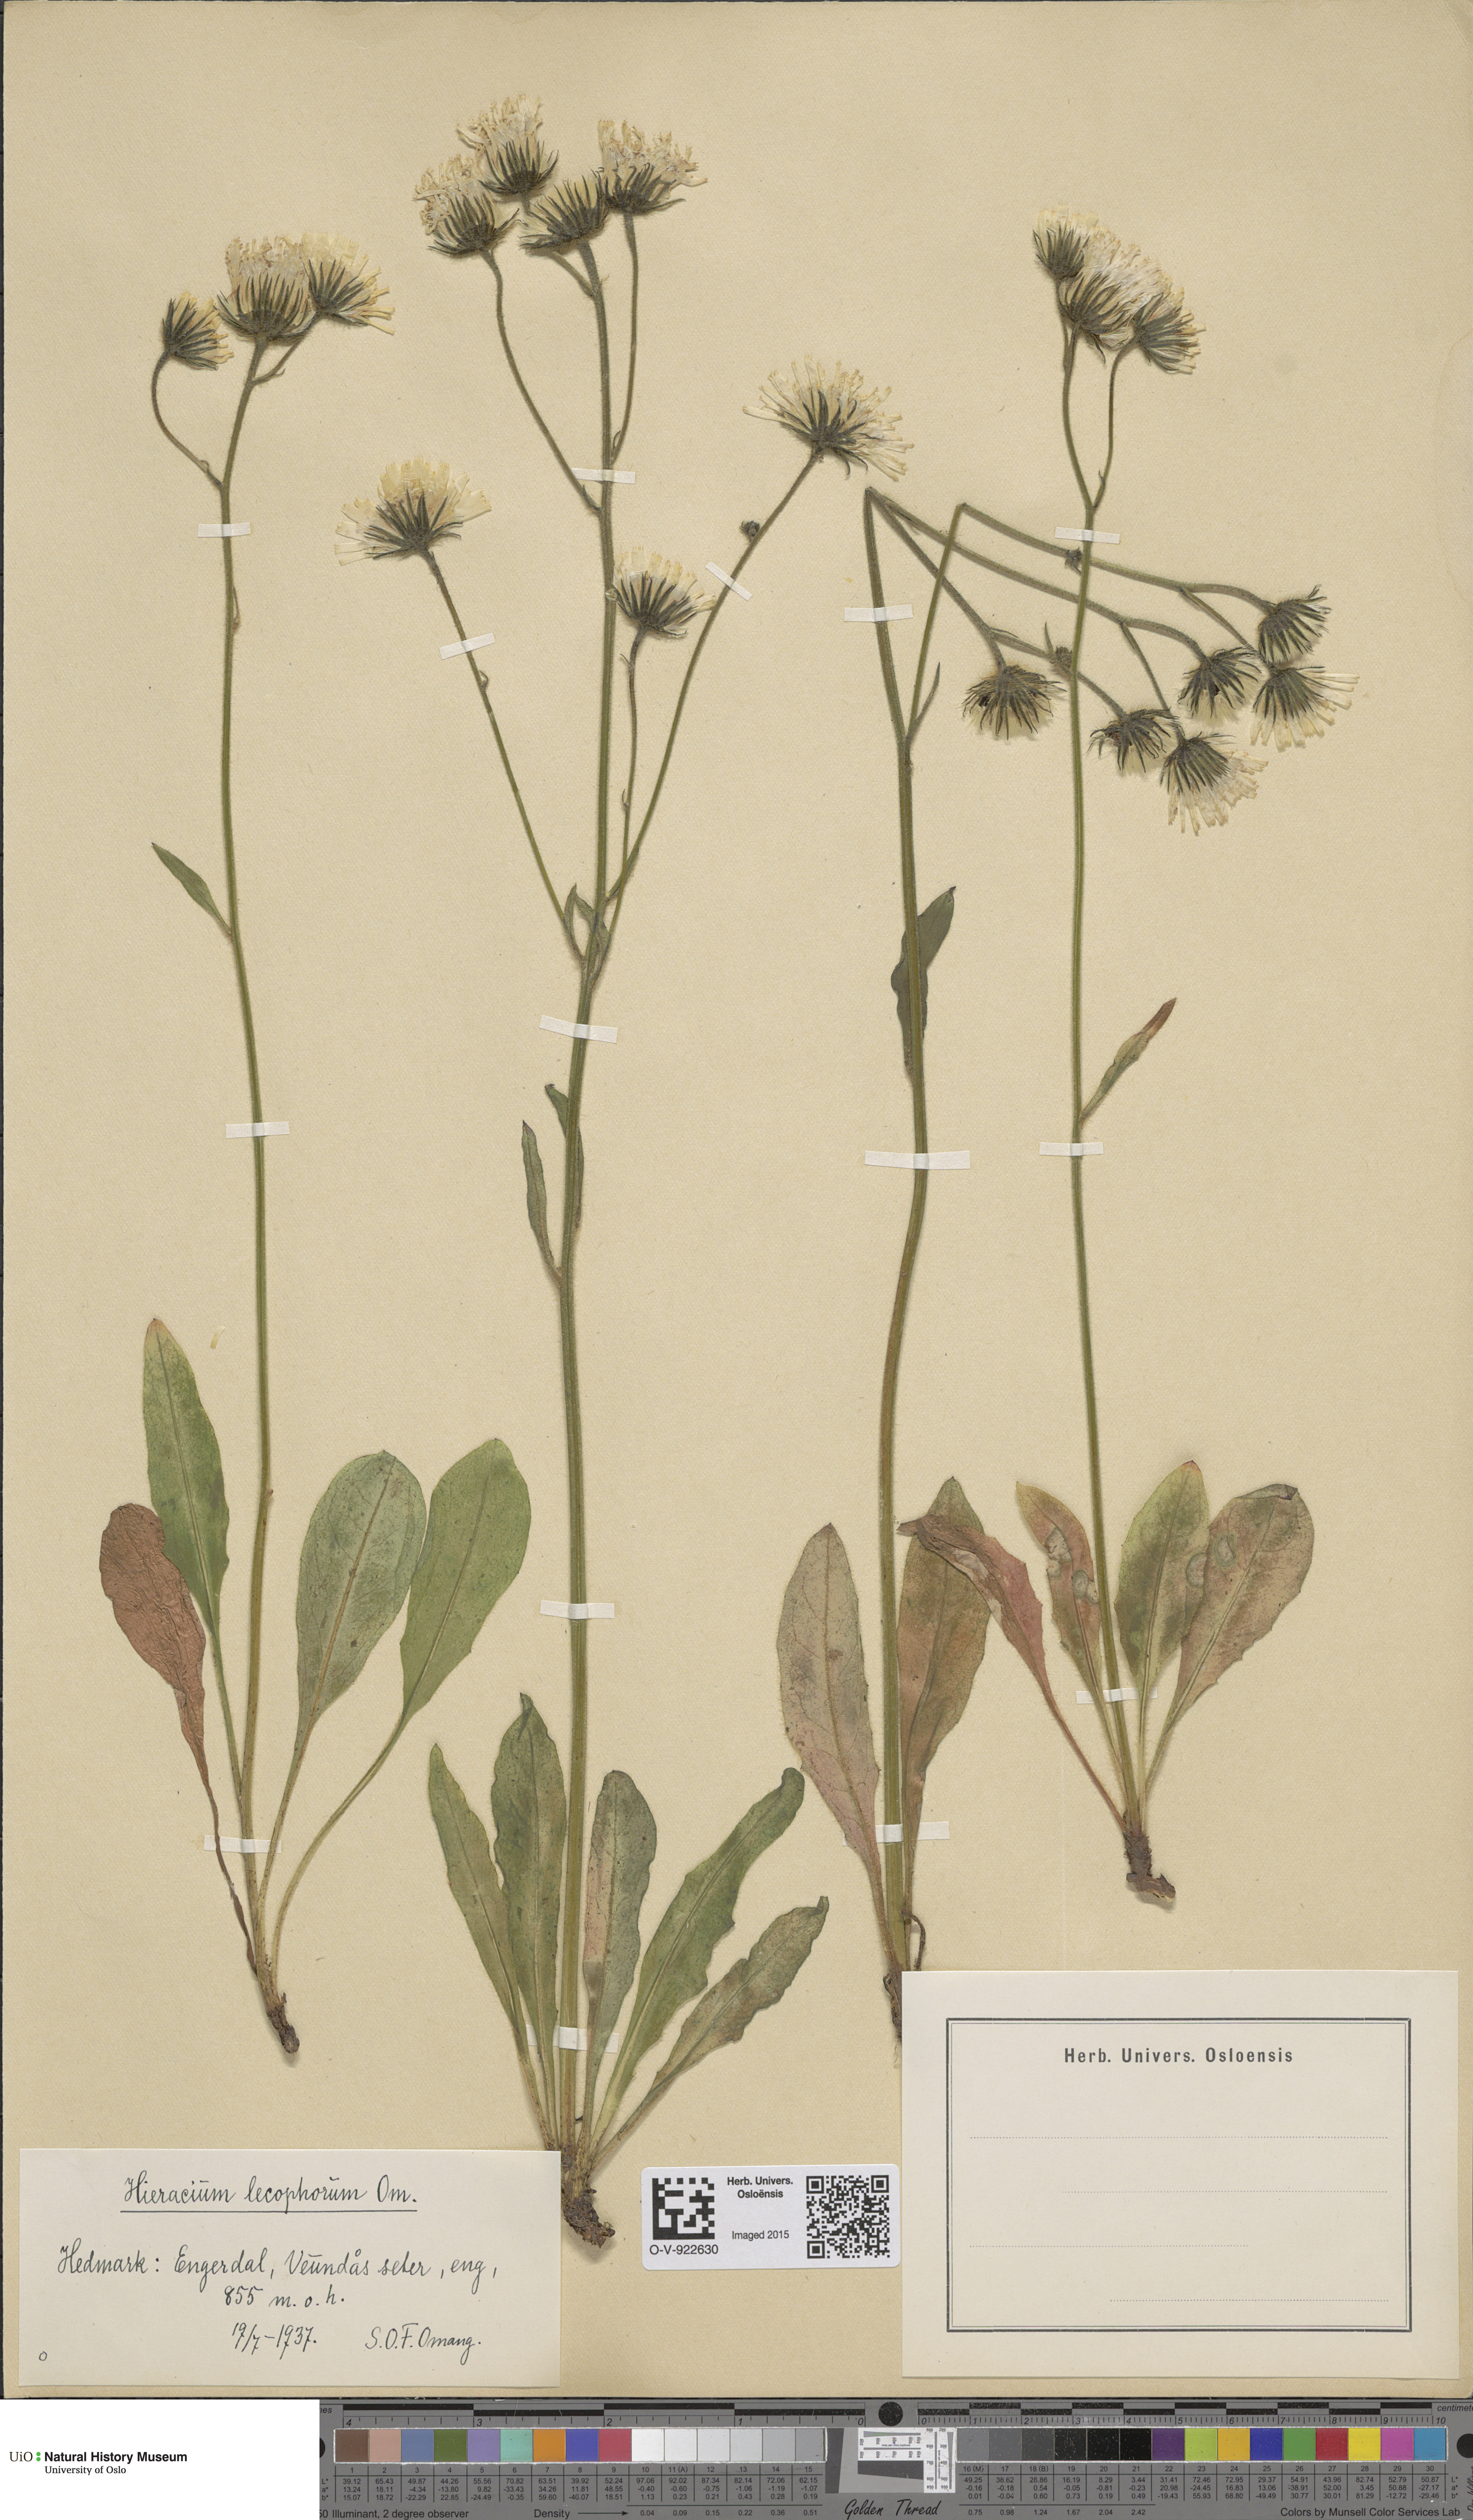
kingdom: Plantae
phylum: Tracheophyta
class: Magnoliopsida
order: Asterales
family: Asteraceae
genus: Hieracium
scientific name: Hieracium
